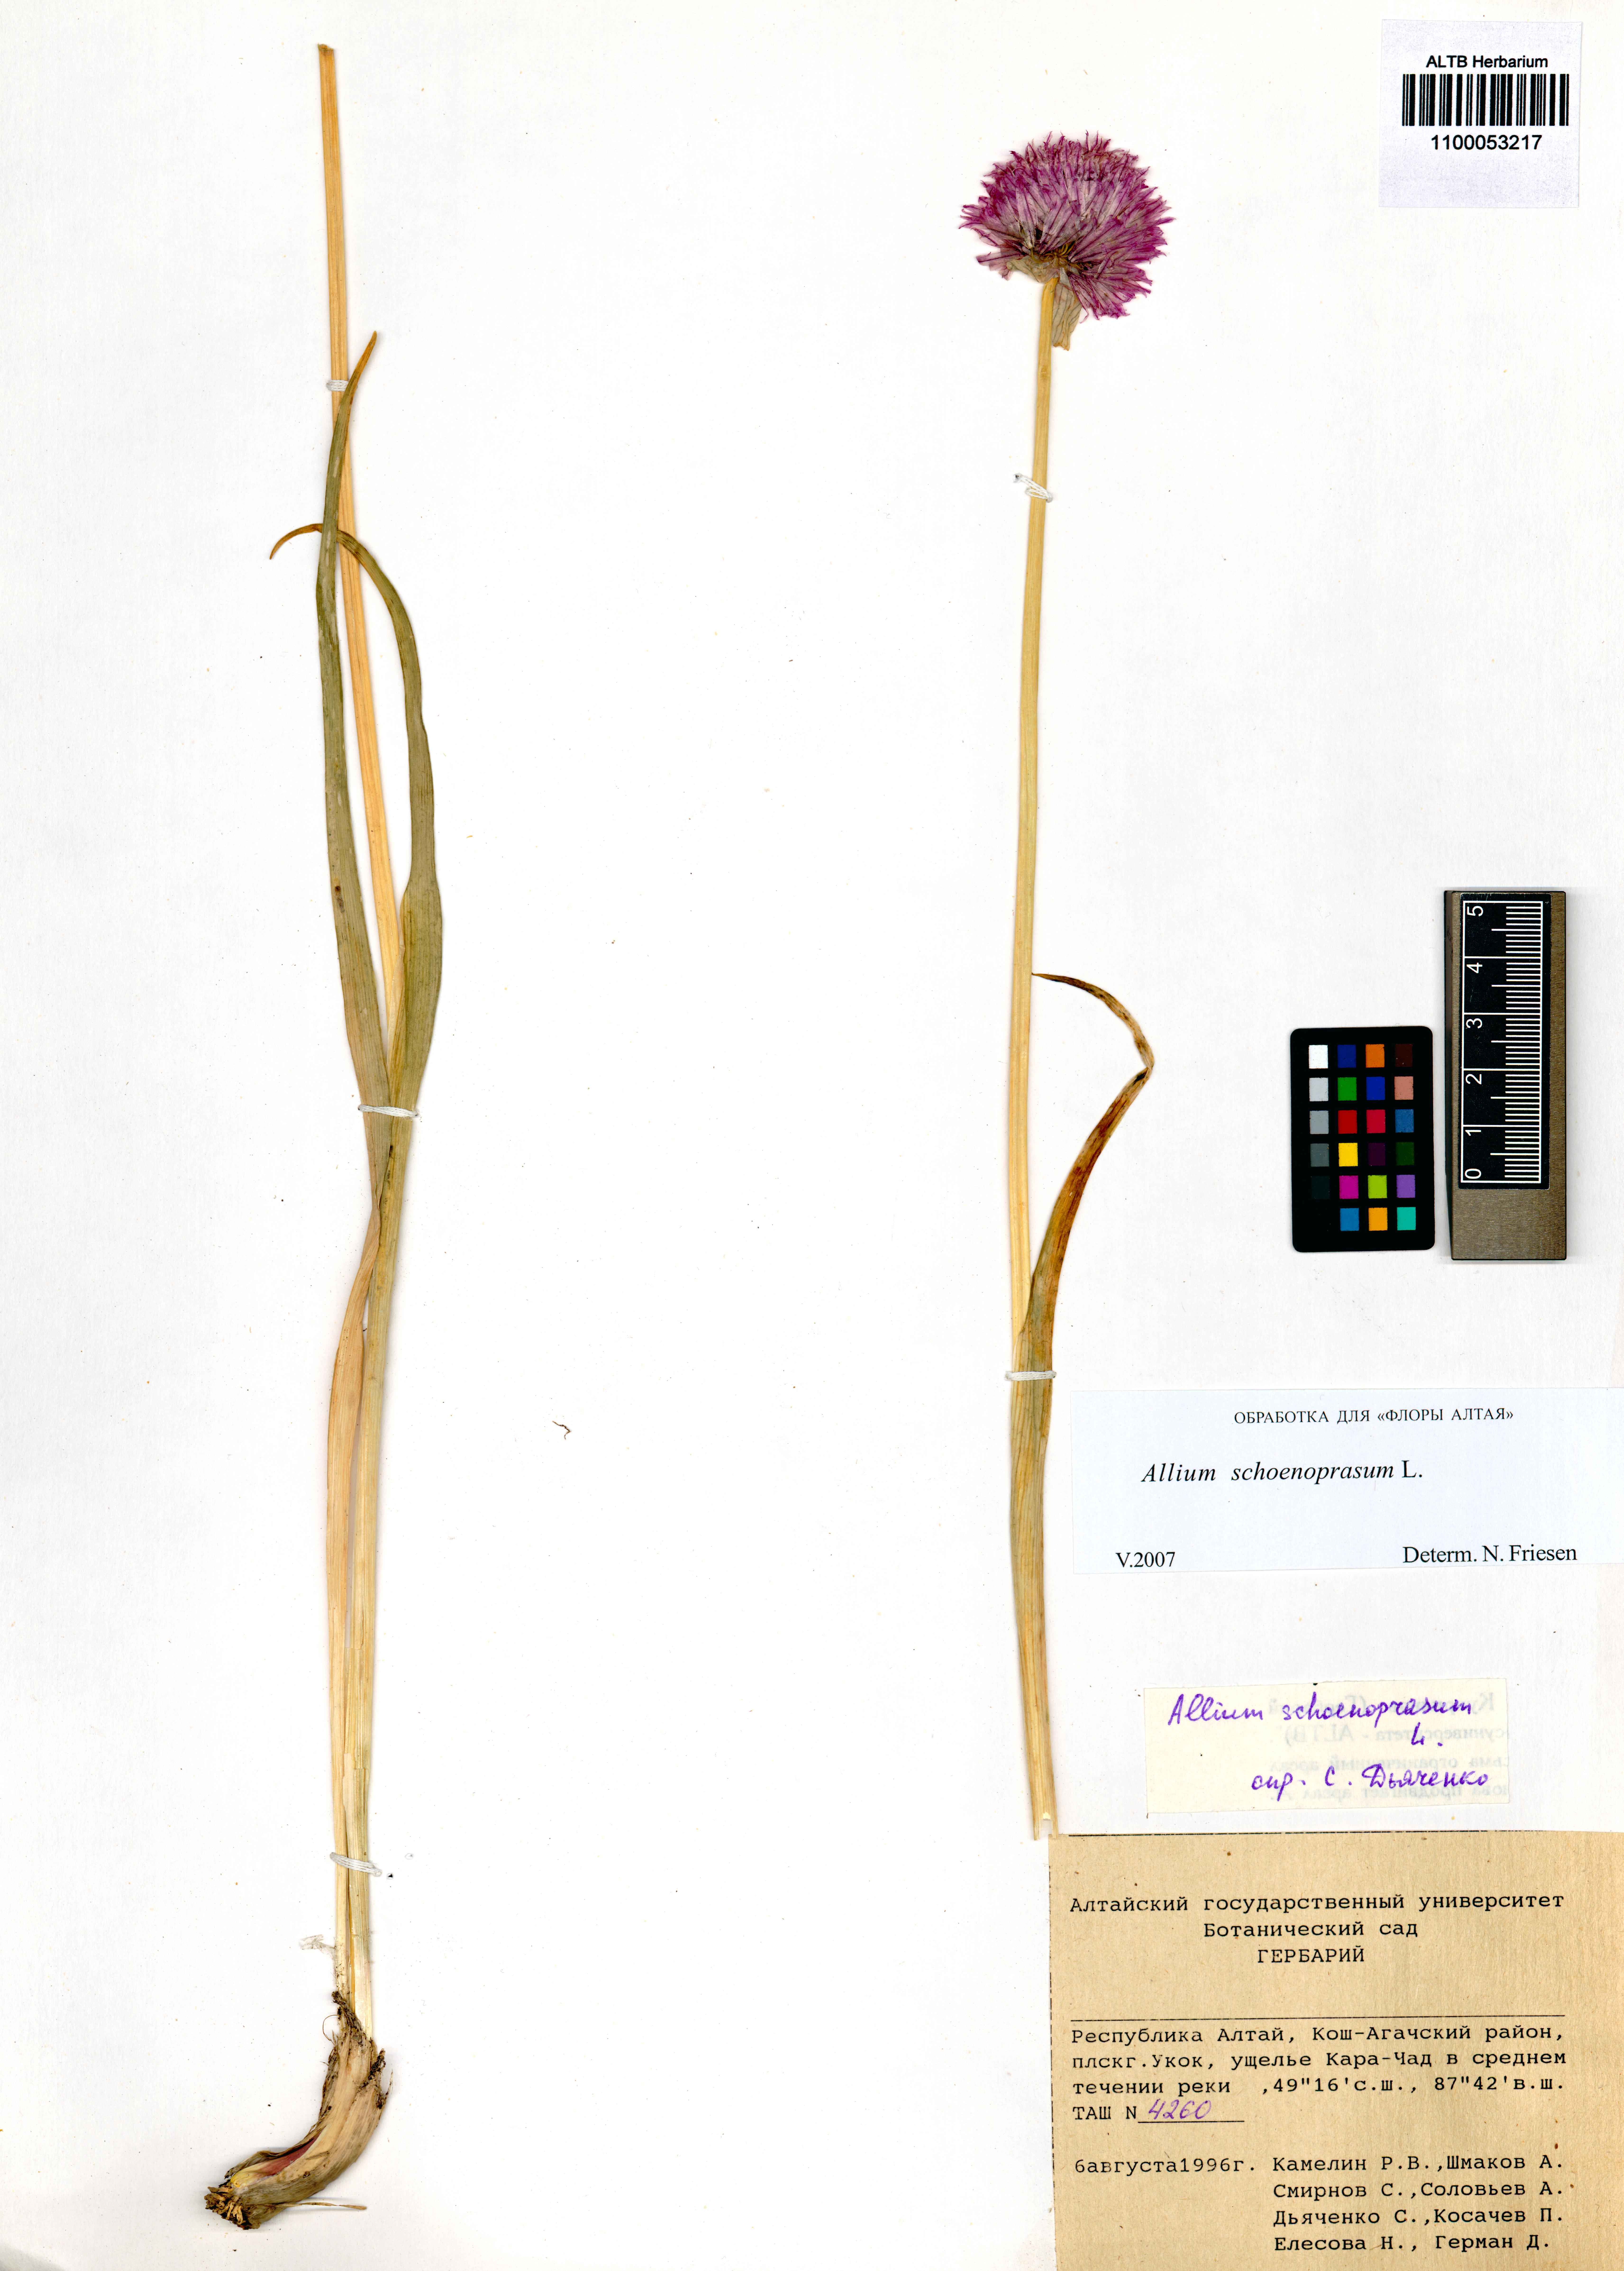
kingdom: Plantae
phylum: Tracheophyta
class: Liliopsida
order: Asparagales
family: Amaryllidaceae
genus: Allium
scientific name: Allium schoenoprasum
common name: Chives
